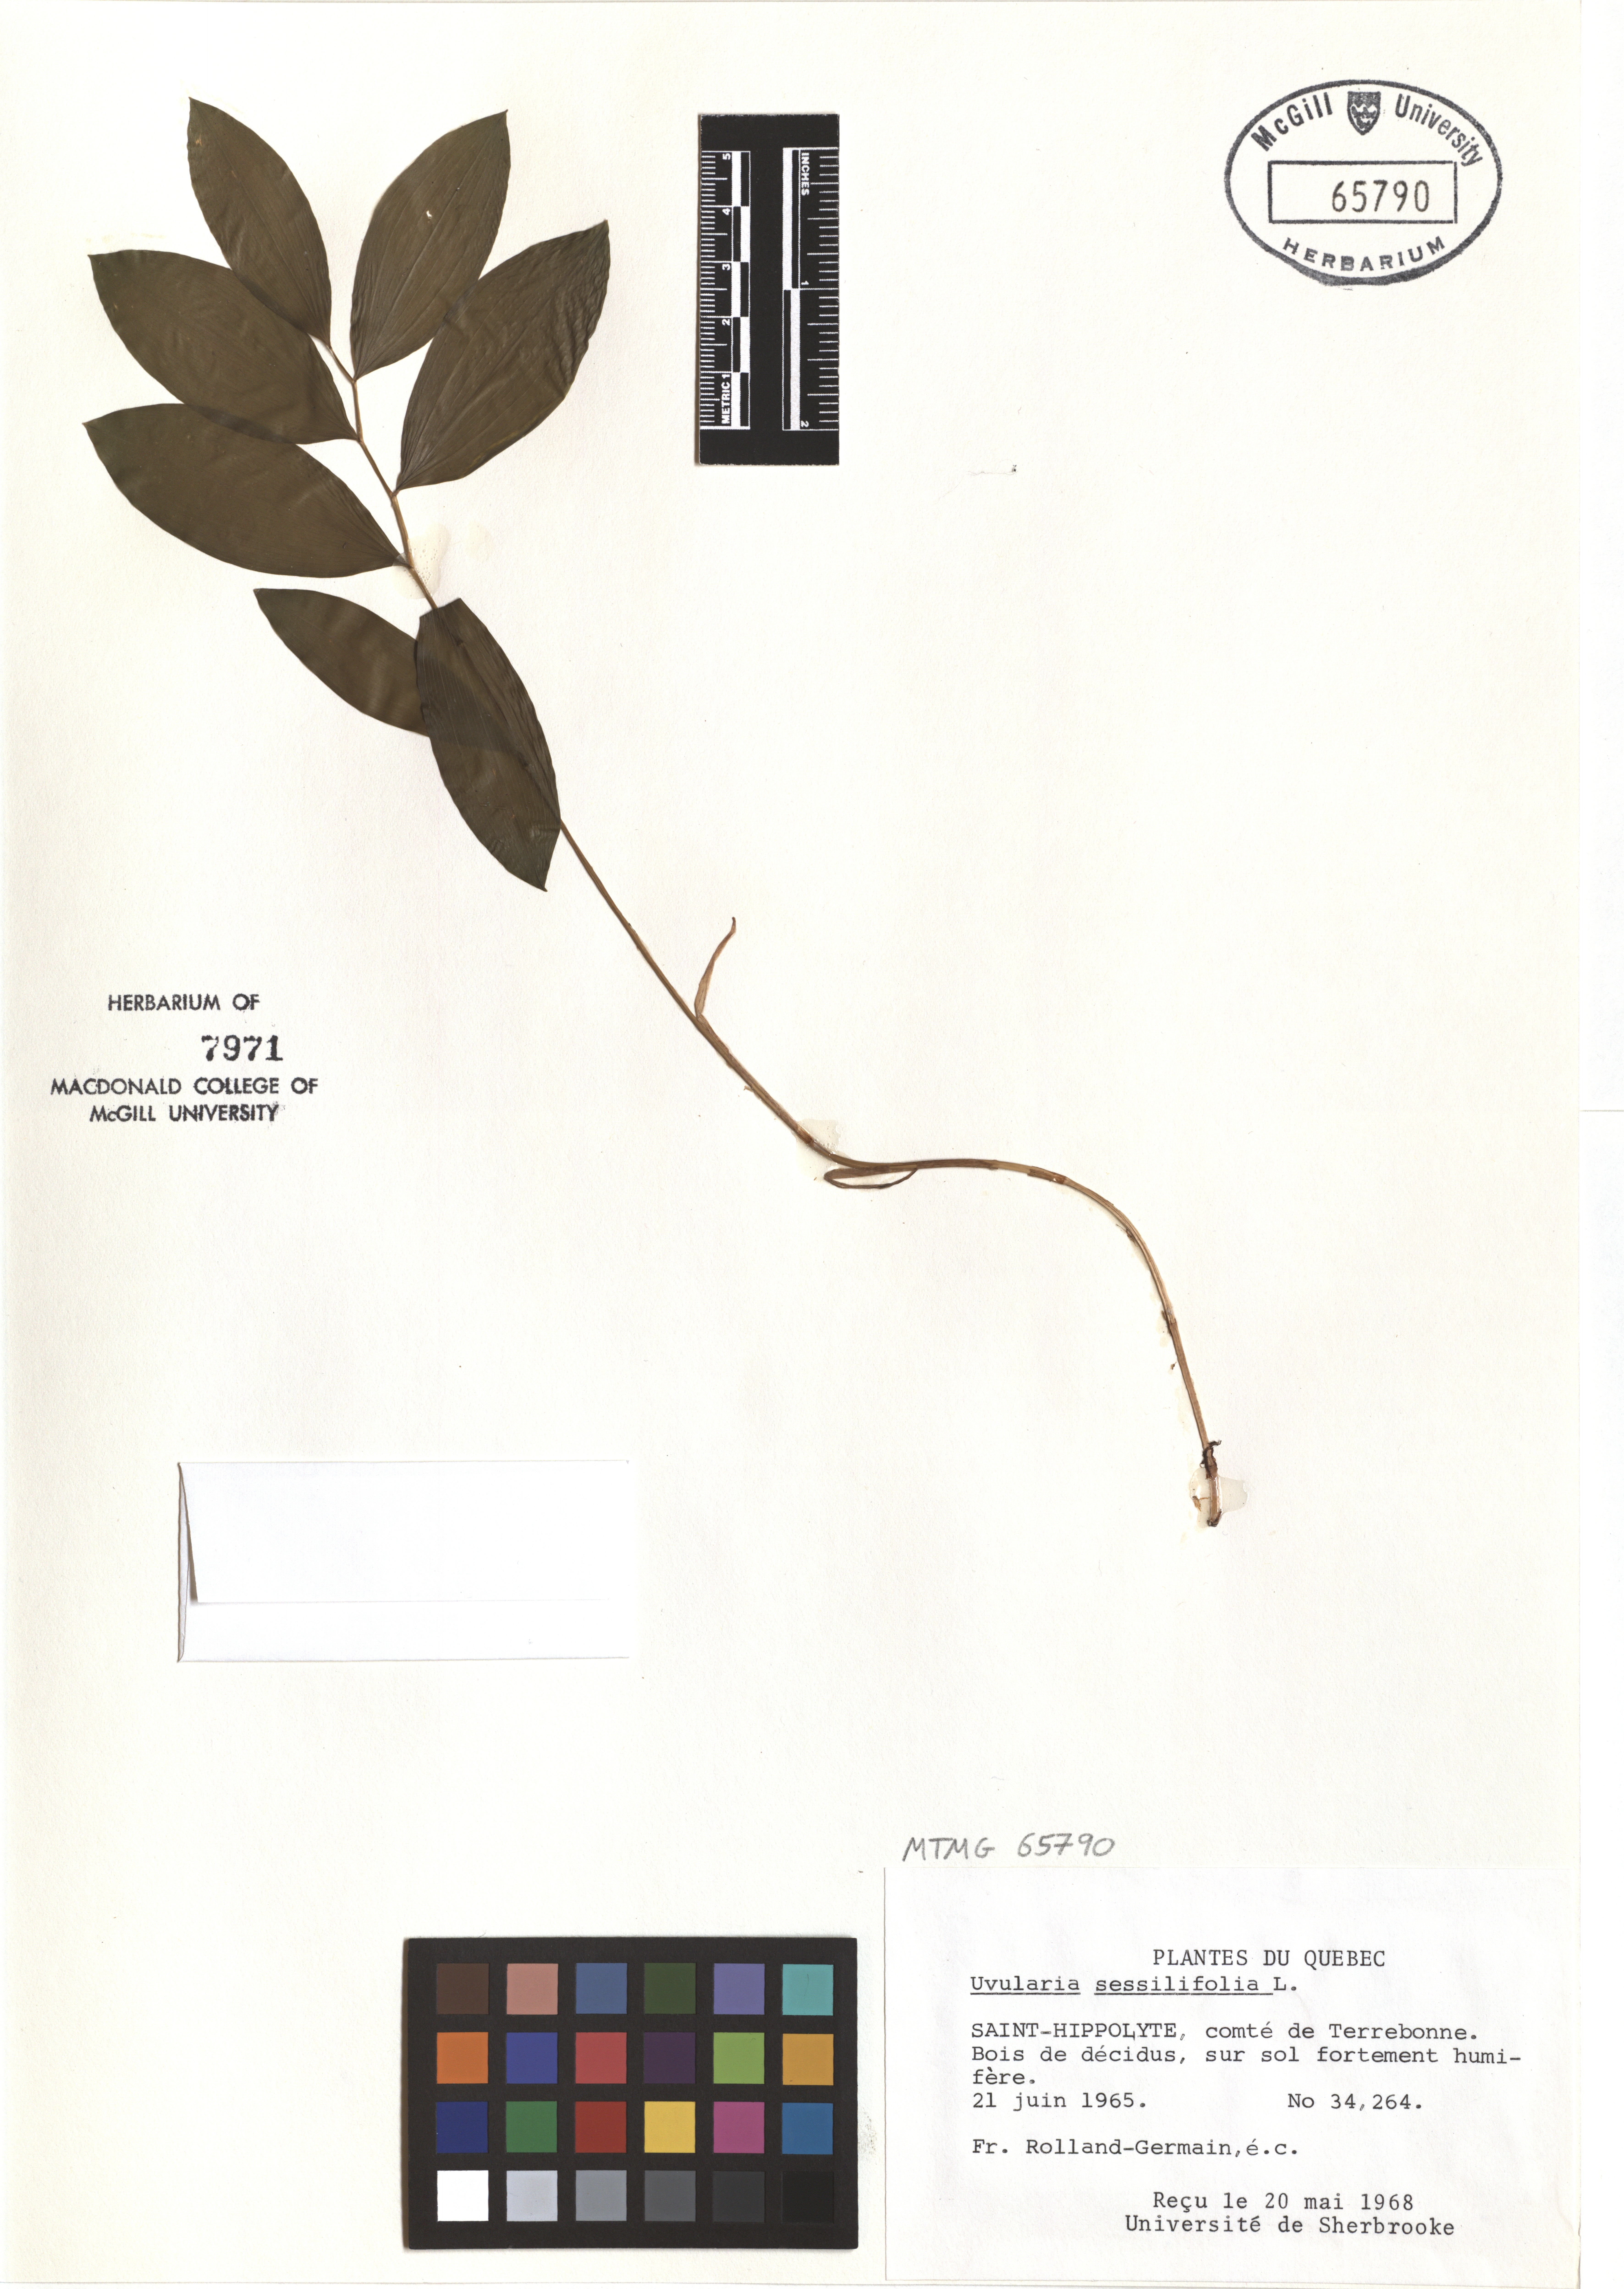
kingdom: Plantae
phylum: Tracheophyta
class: Liliopsida
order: Liliales
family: Colchicaceae
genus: Uvularia
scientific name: Uvularia sessilifolia
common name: Straw-lily
